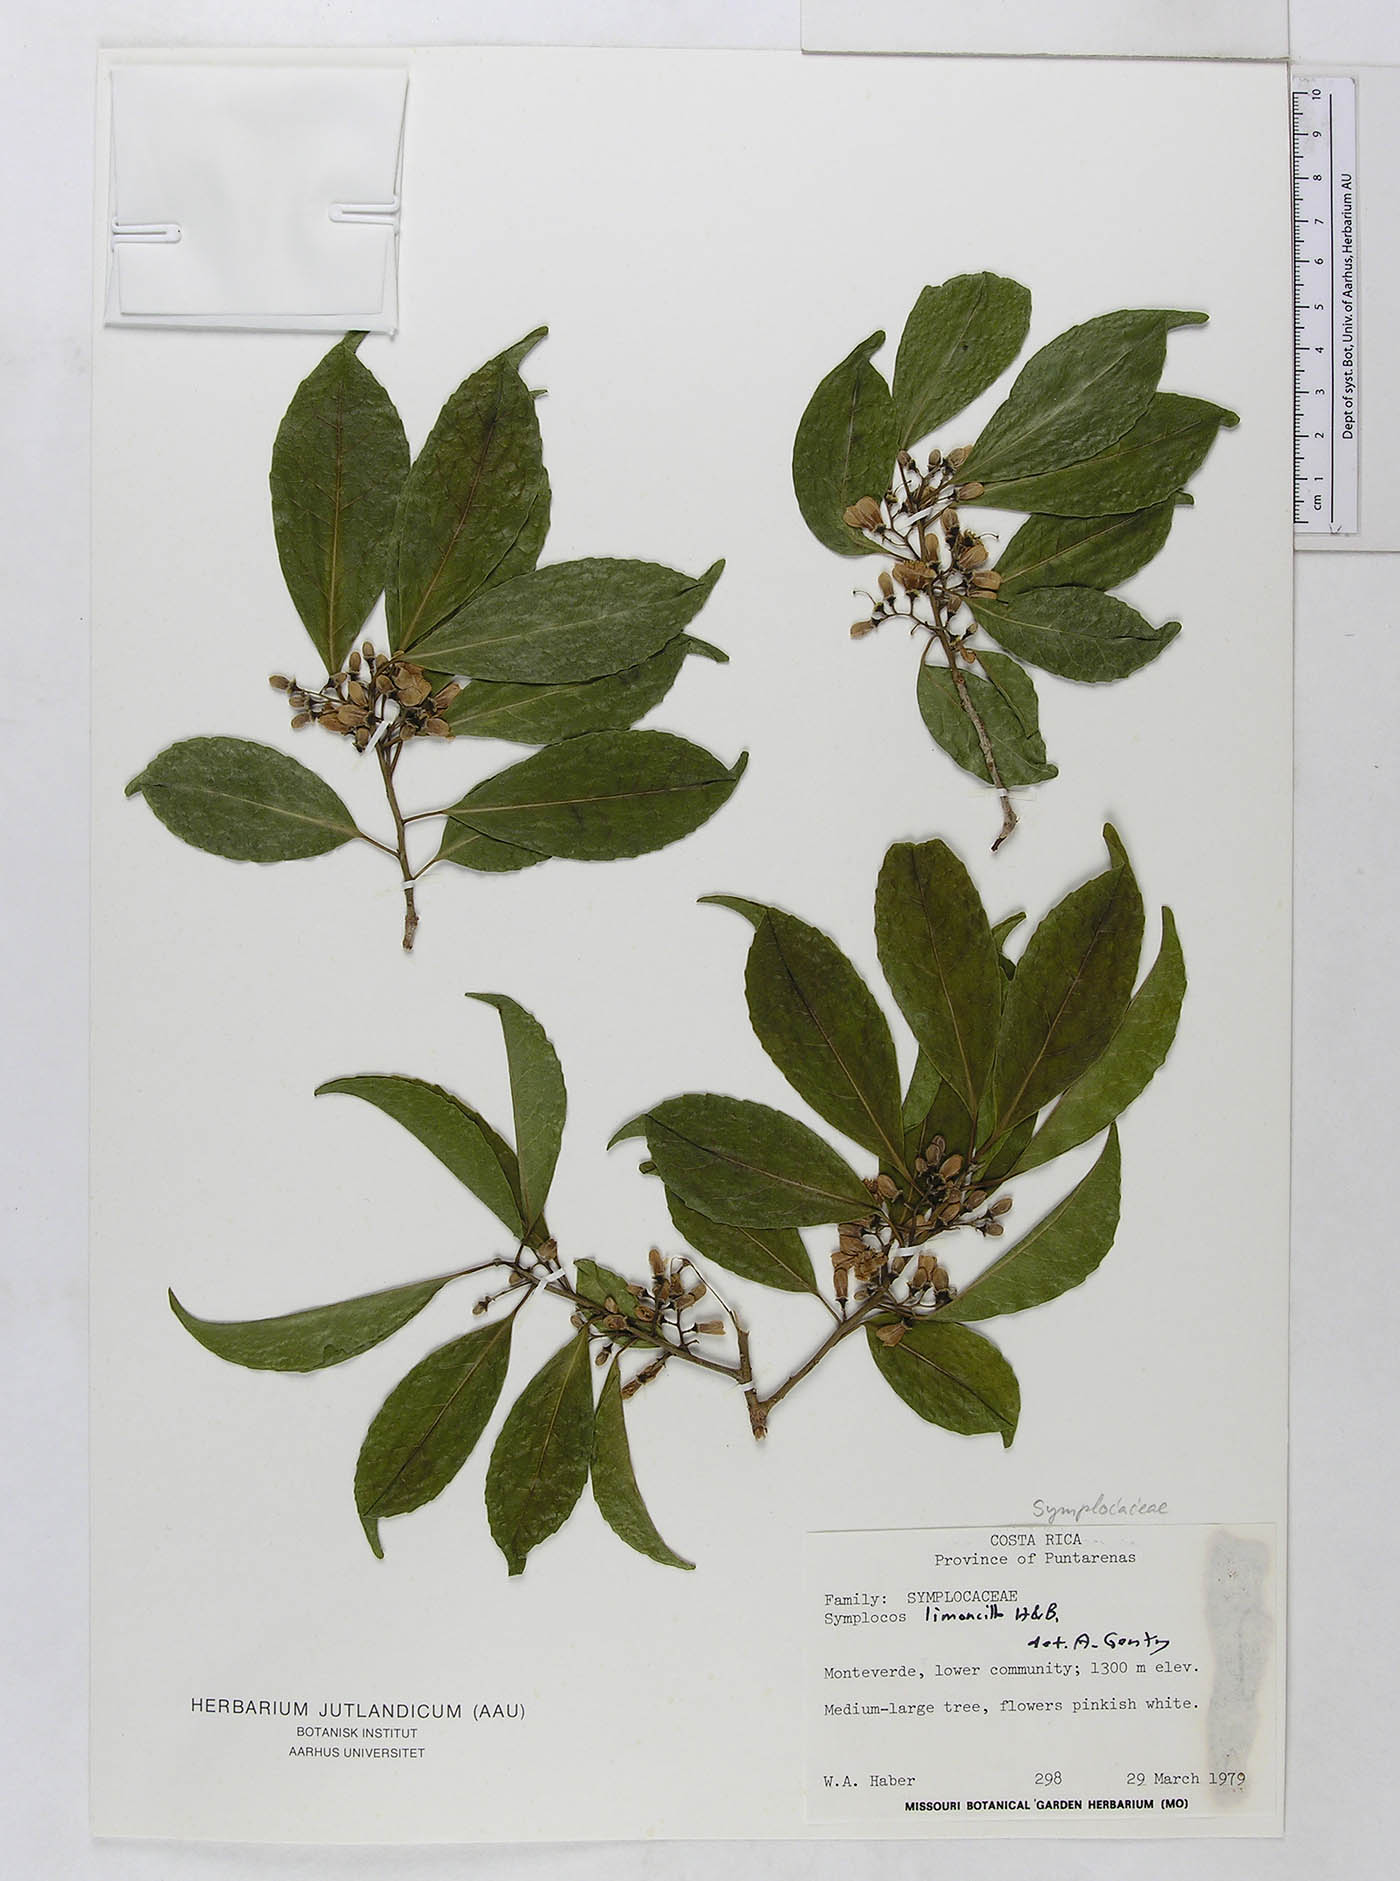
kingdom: Plantae
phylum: Tracheophyta
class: Magnoliopsida
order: Ericales
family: Symplocaceae
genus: Symplocos
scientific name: Symplocos limoncillo
